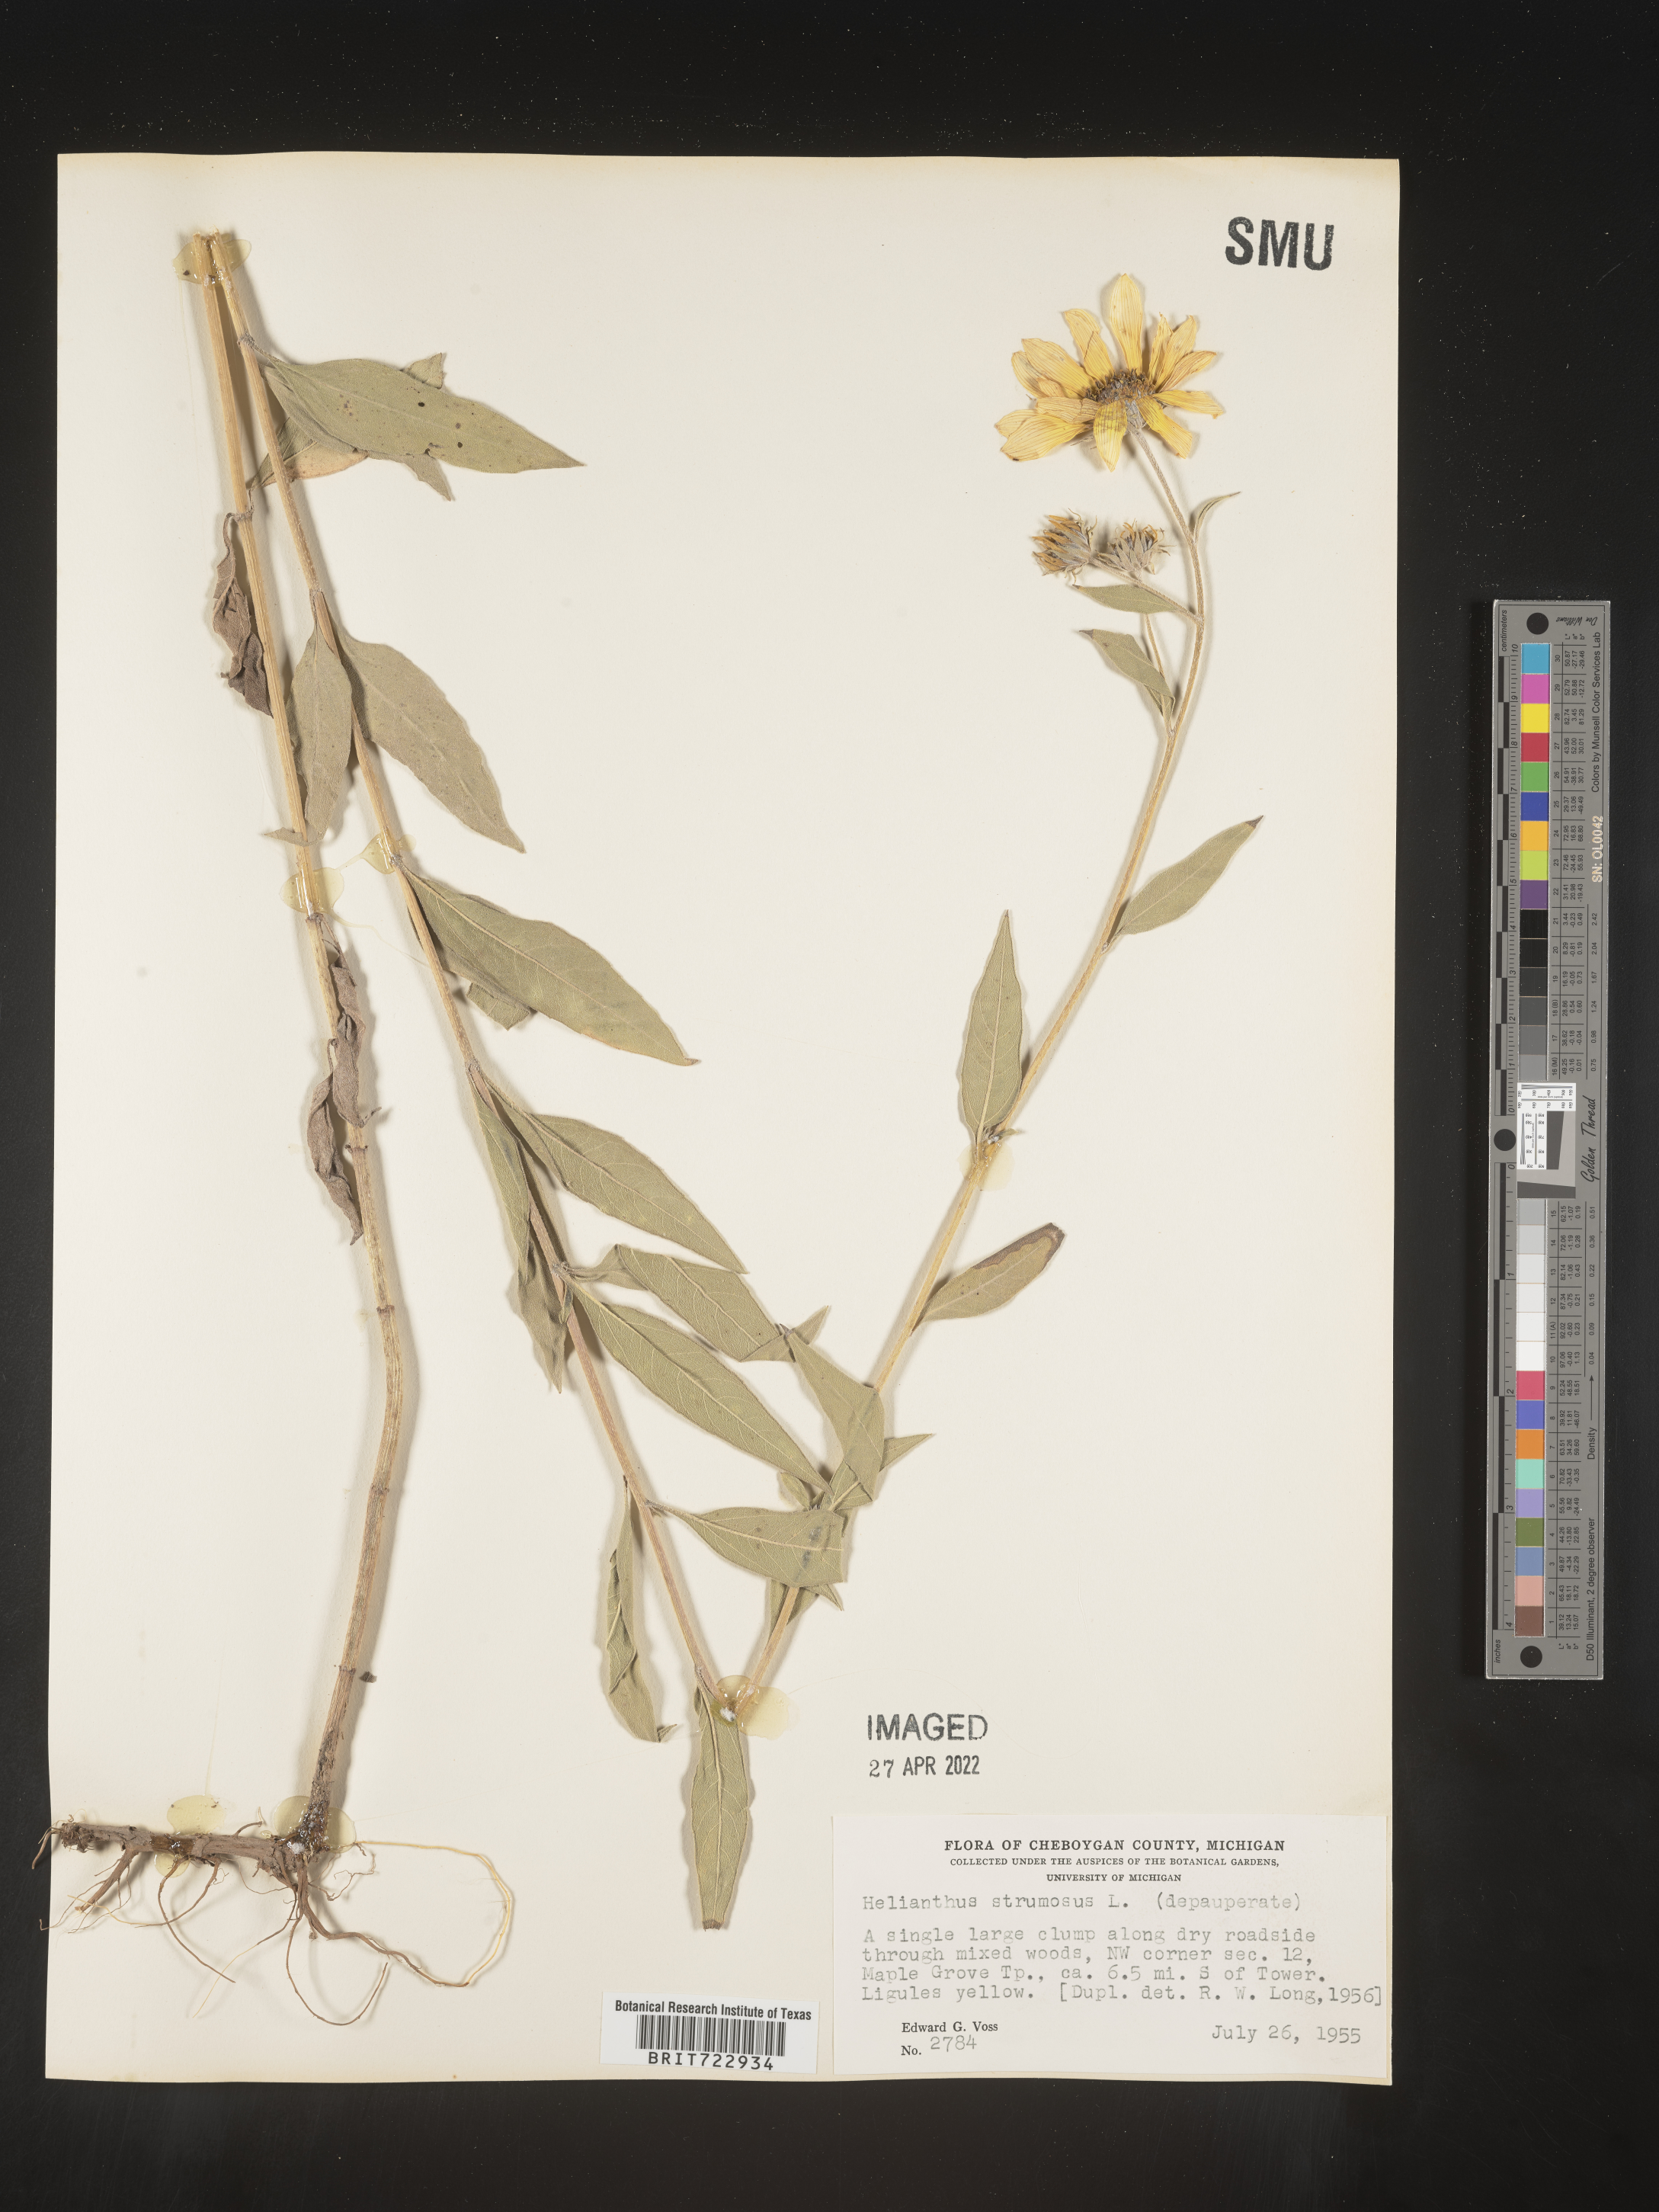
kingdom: Plantae
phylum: Tracheophyta
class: Magnoliopsida
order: Asterales
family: Asteraceae
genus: Helianthus
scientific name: Helianthus strumosus
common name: Pale-leaved sunflower
